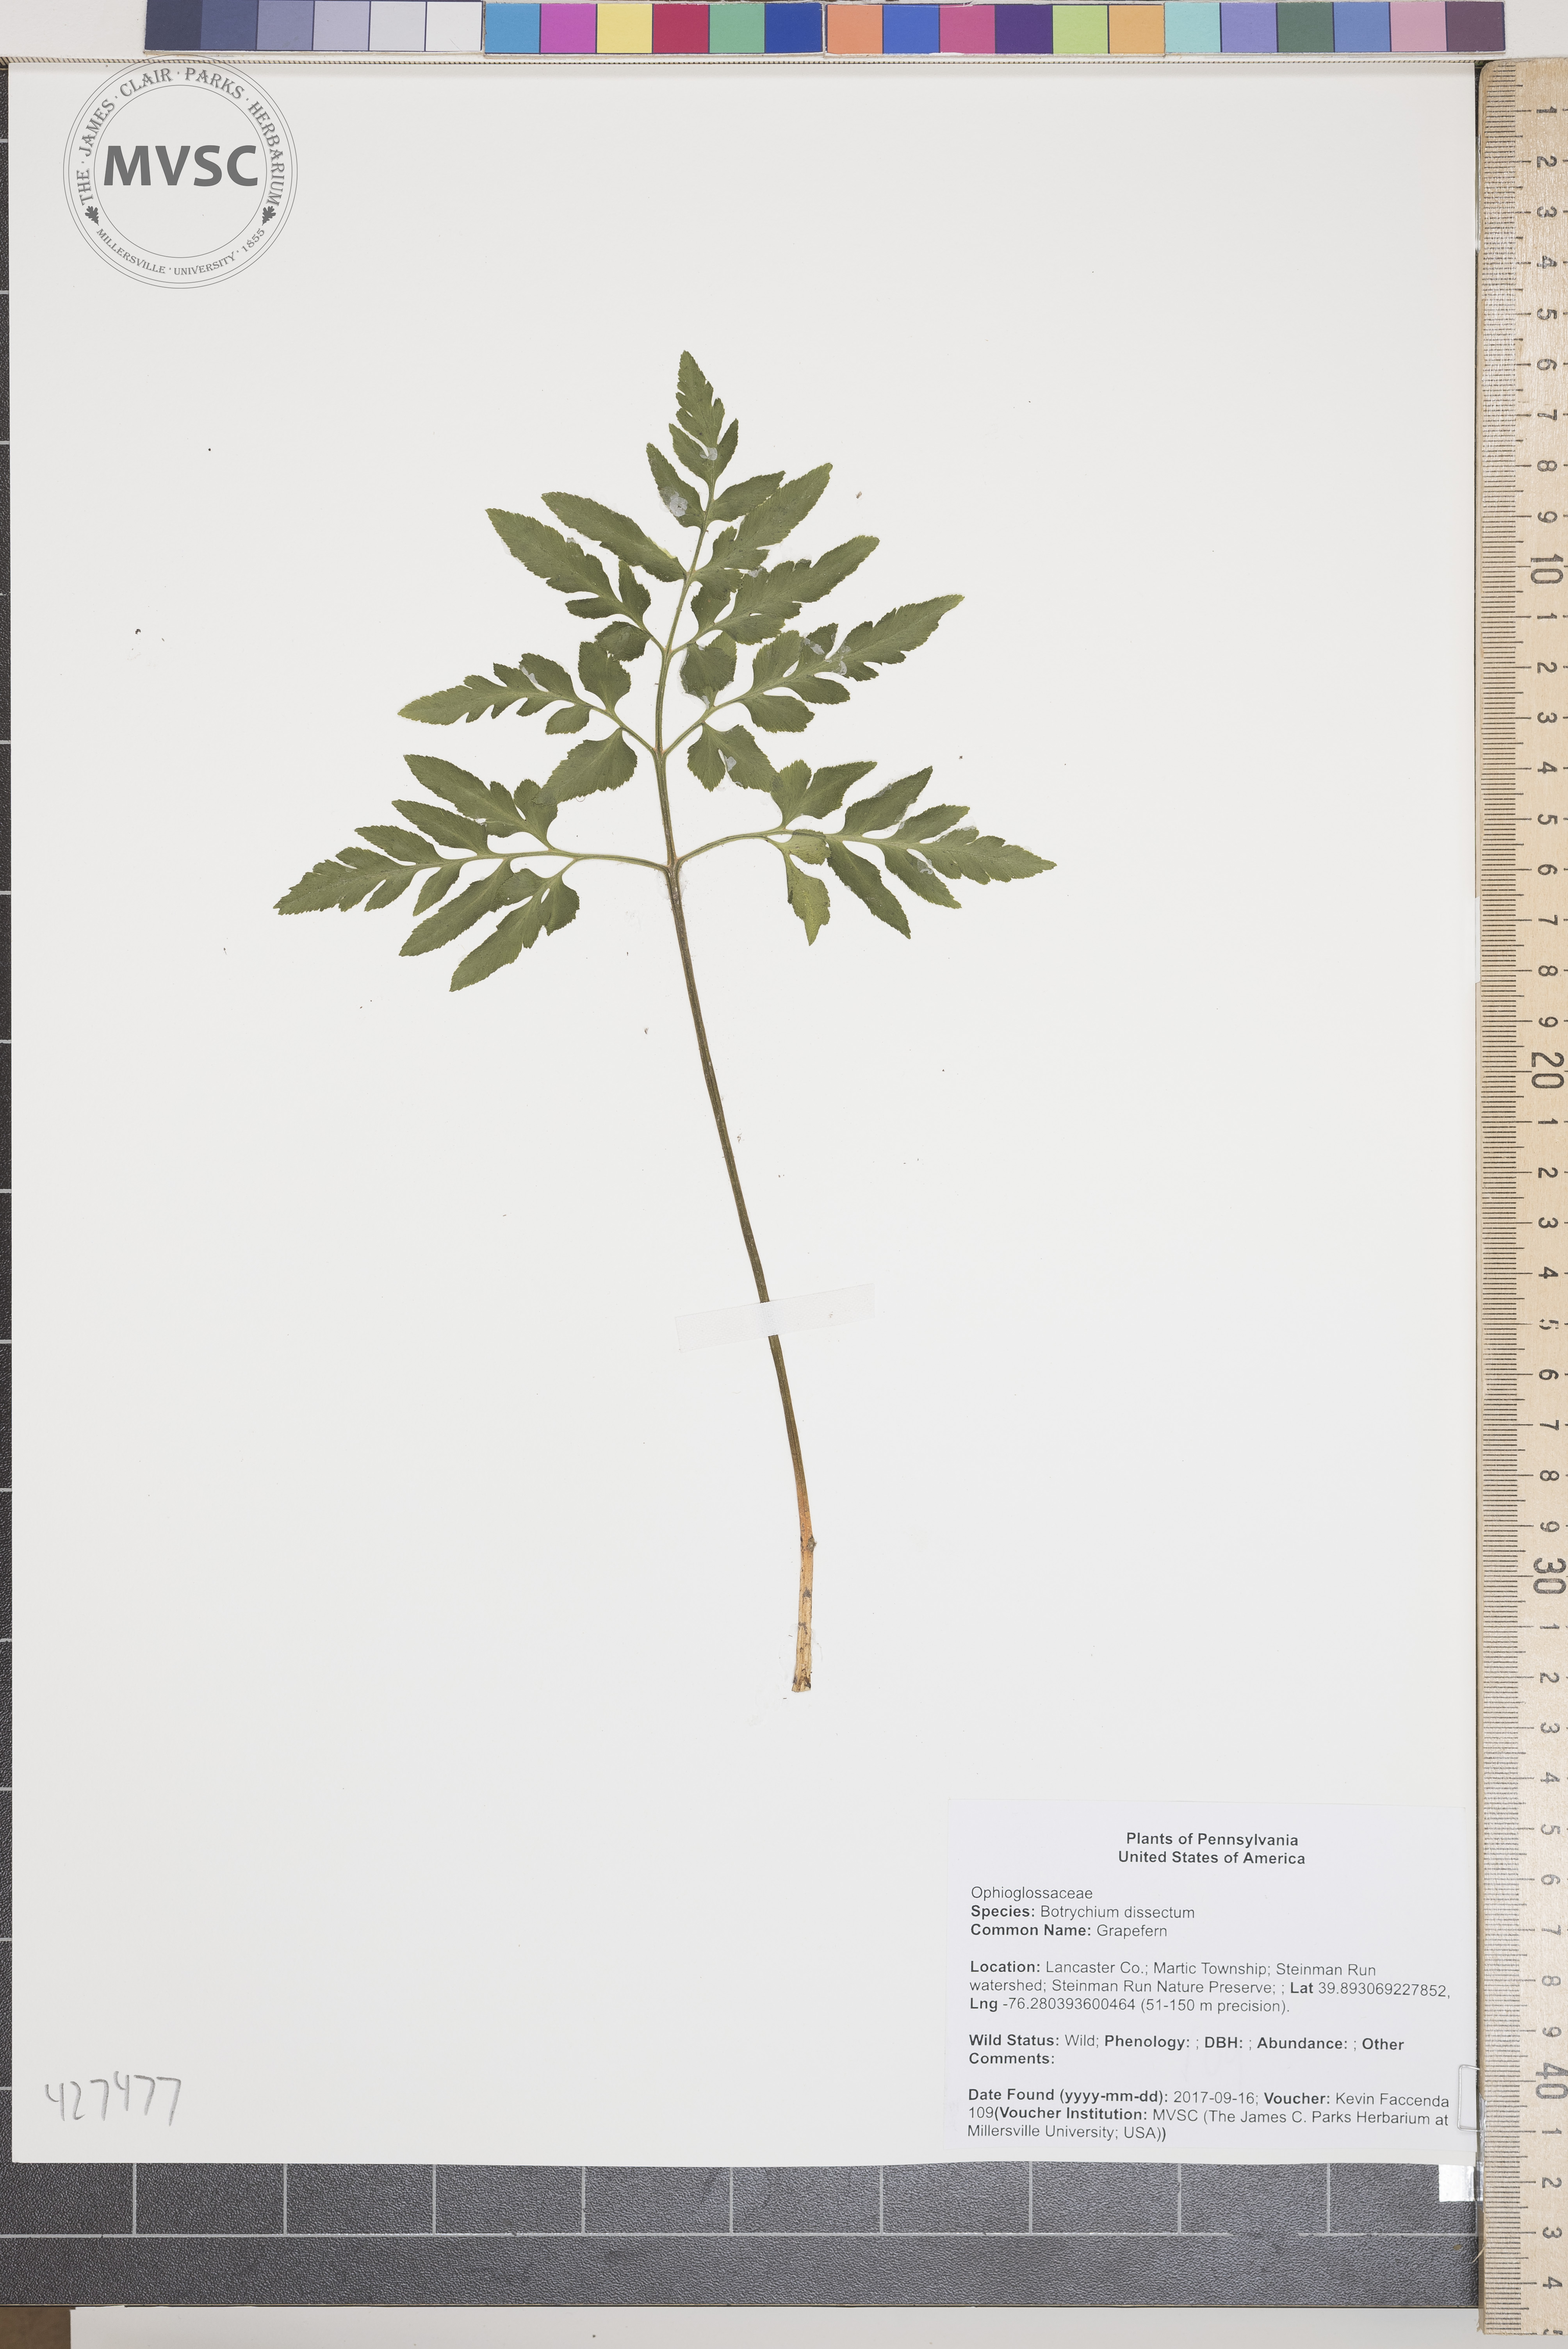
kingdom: Plantae
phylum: Tracheophyta
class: Polypodiopsida
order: Ophioglossales
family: Ophioglossaceae
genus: Sceptridium
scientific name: Sceptridium dissectum
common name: Grapefern
